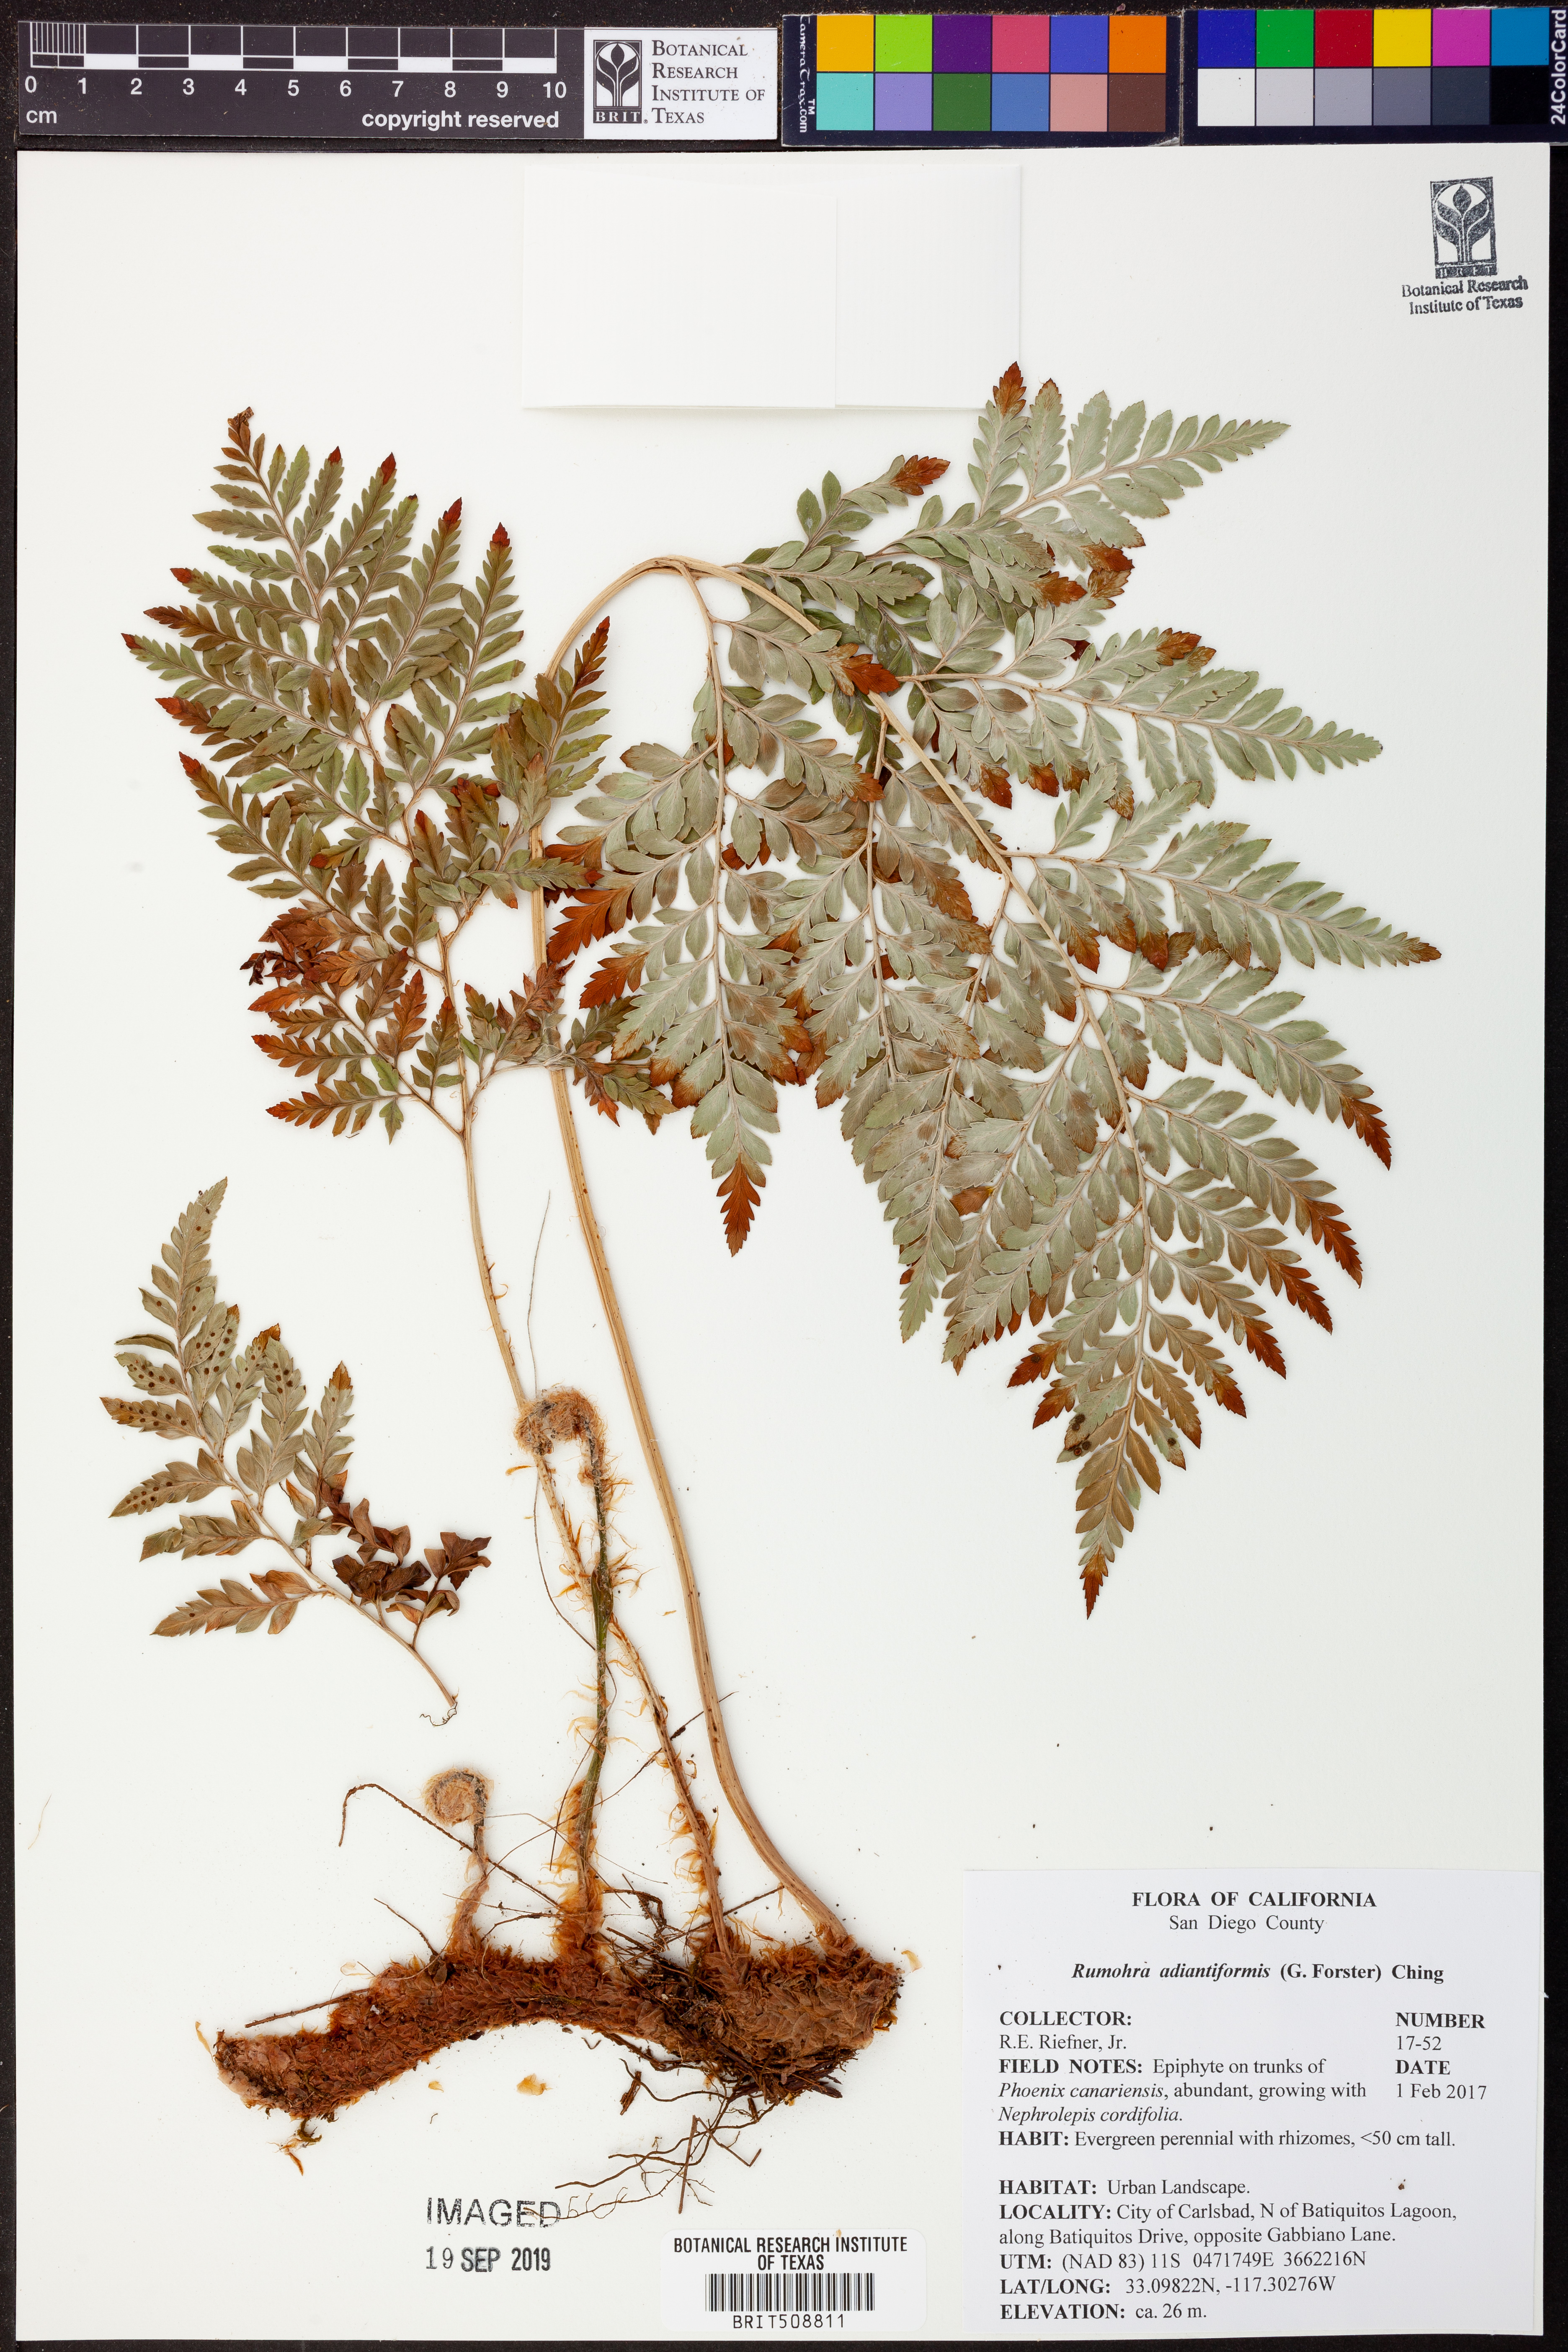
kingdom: Plantae
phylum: Tracheophyta
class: Polypodiopsida
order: Polypodiales
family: Dryopteridaceae
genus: Rumohra
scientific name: Rumohra adiantiformis
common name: Leather fern
